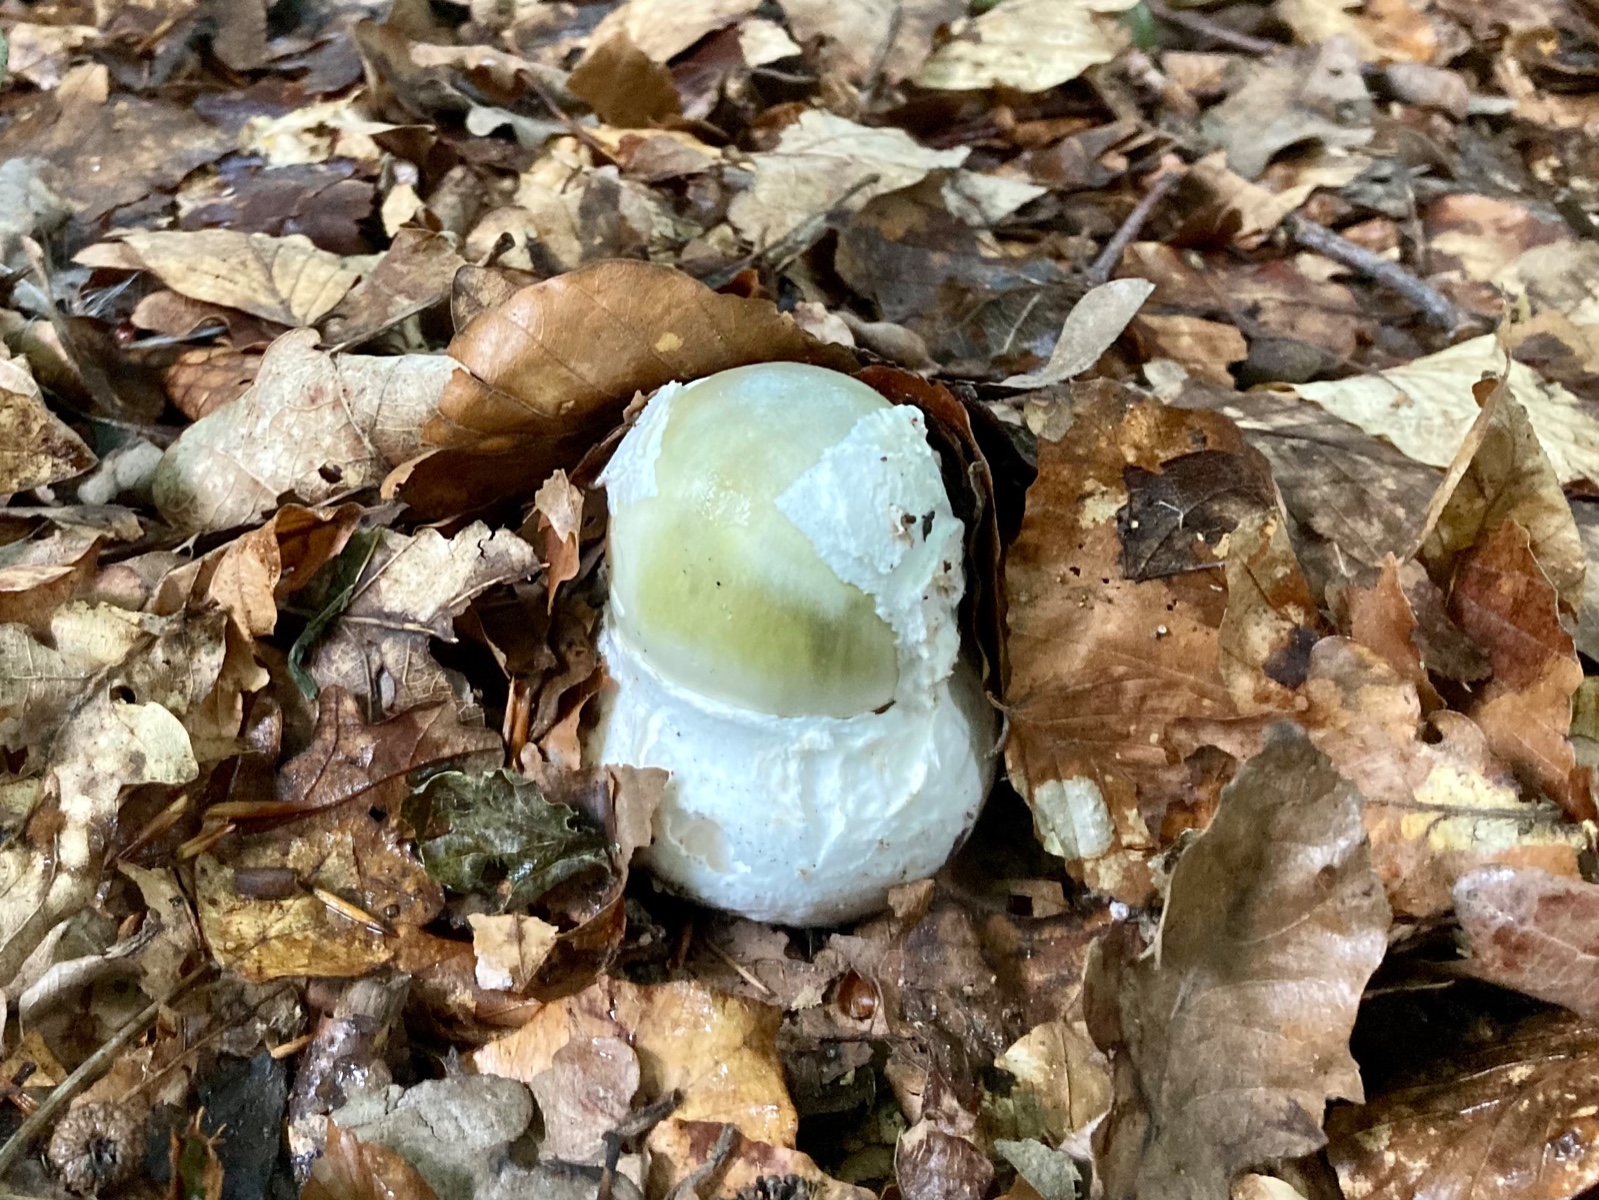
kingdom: Fungi
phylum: Basidiomycota
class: Agaricomycetes
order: Agaricales
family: Amanitaceae
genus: Amanita
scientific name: Amanita phalloides
